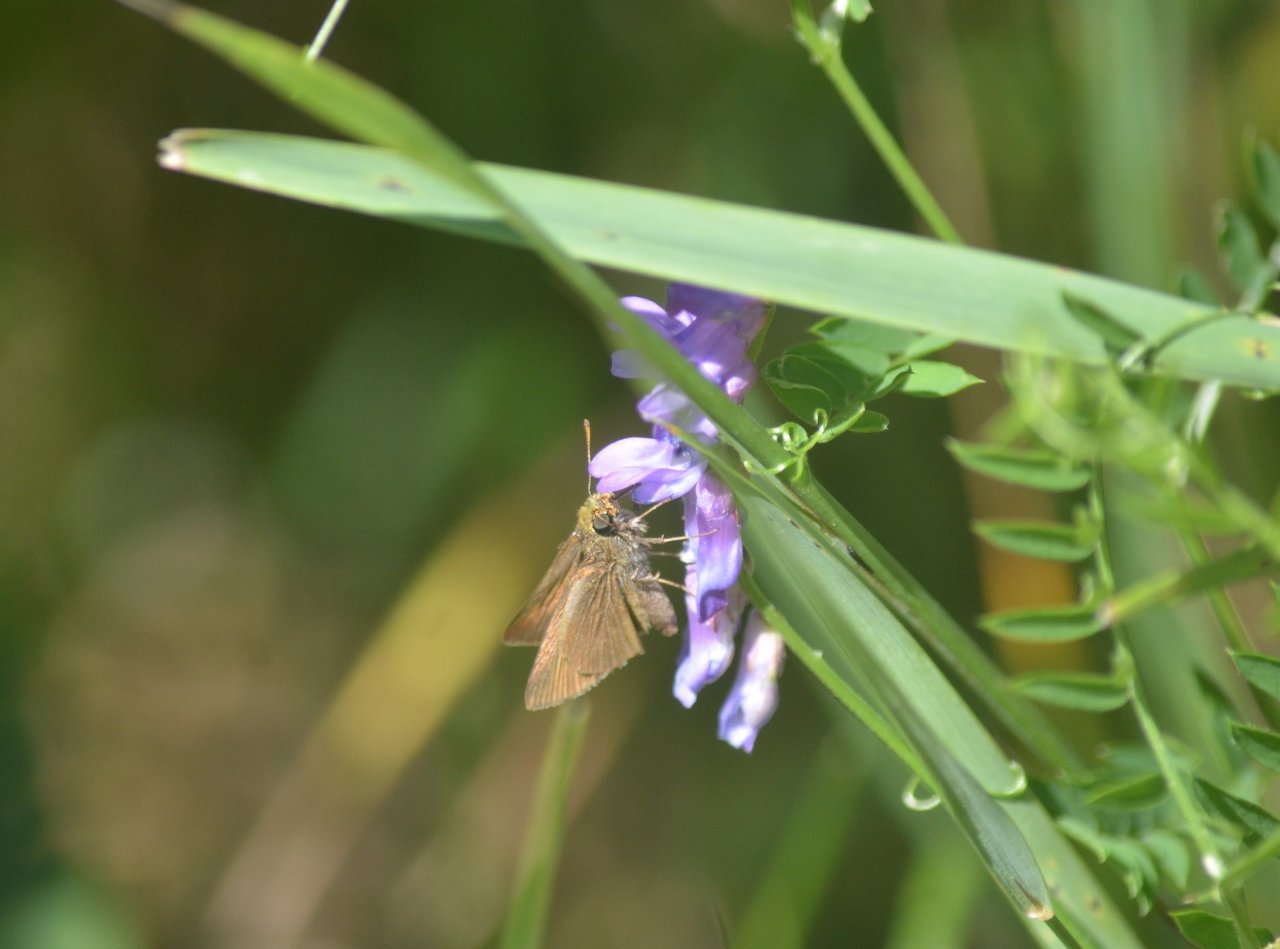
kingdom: Animalia
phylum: Arthropoda
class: Insecta
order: Lepidoptera
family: Hesperiidae
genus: Euphyes
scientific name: Euphyes vestris
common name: Dun Skipper
